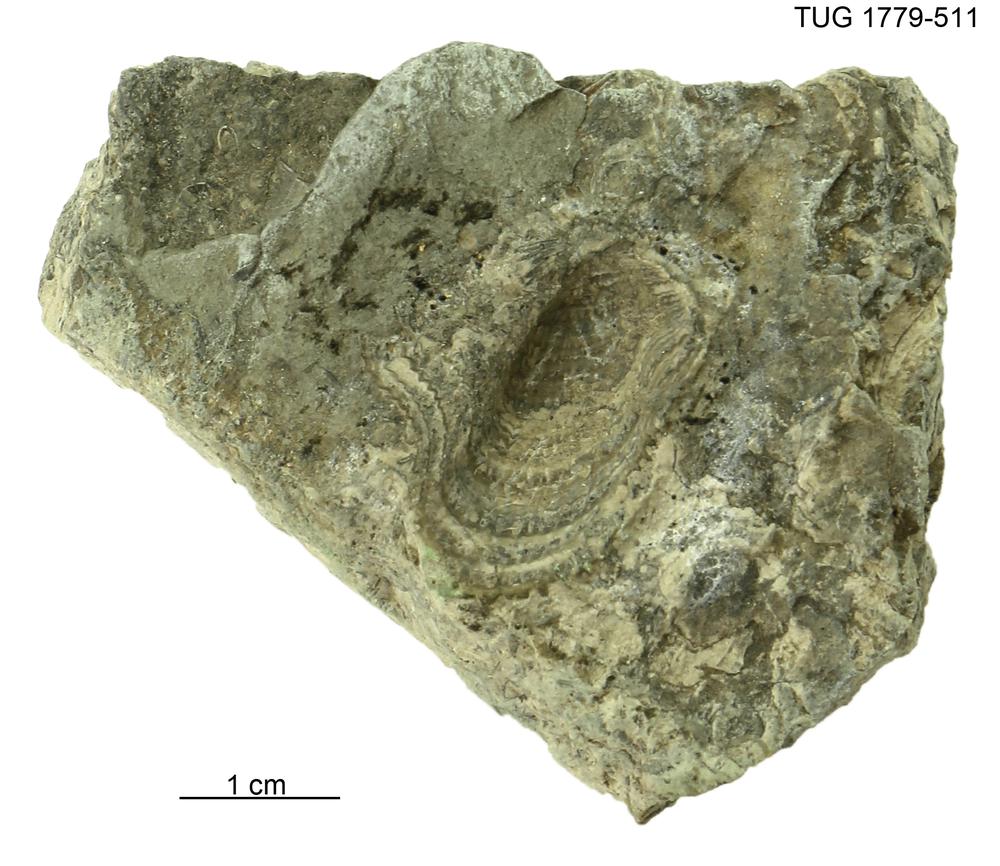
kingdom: Animalia
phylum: Mollusca
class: Bivalvia
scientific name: Bivalvia
